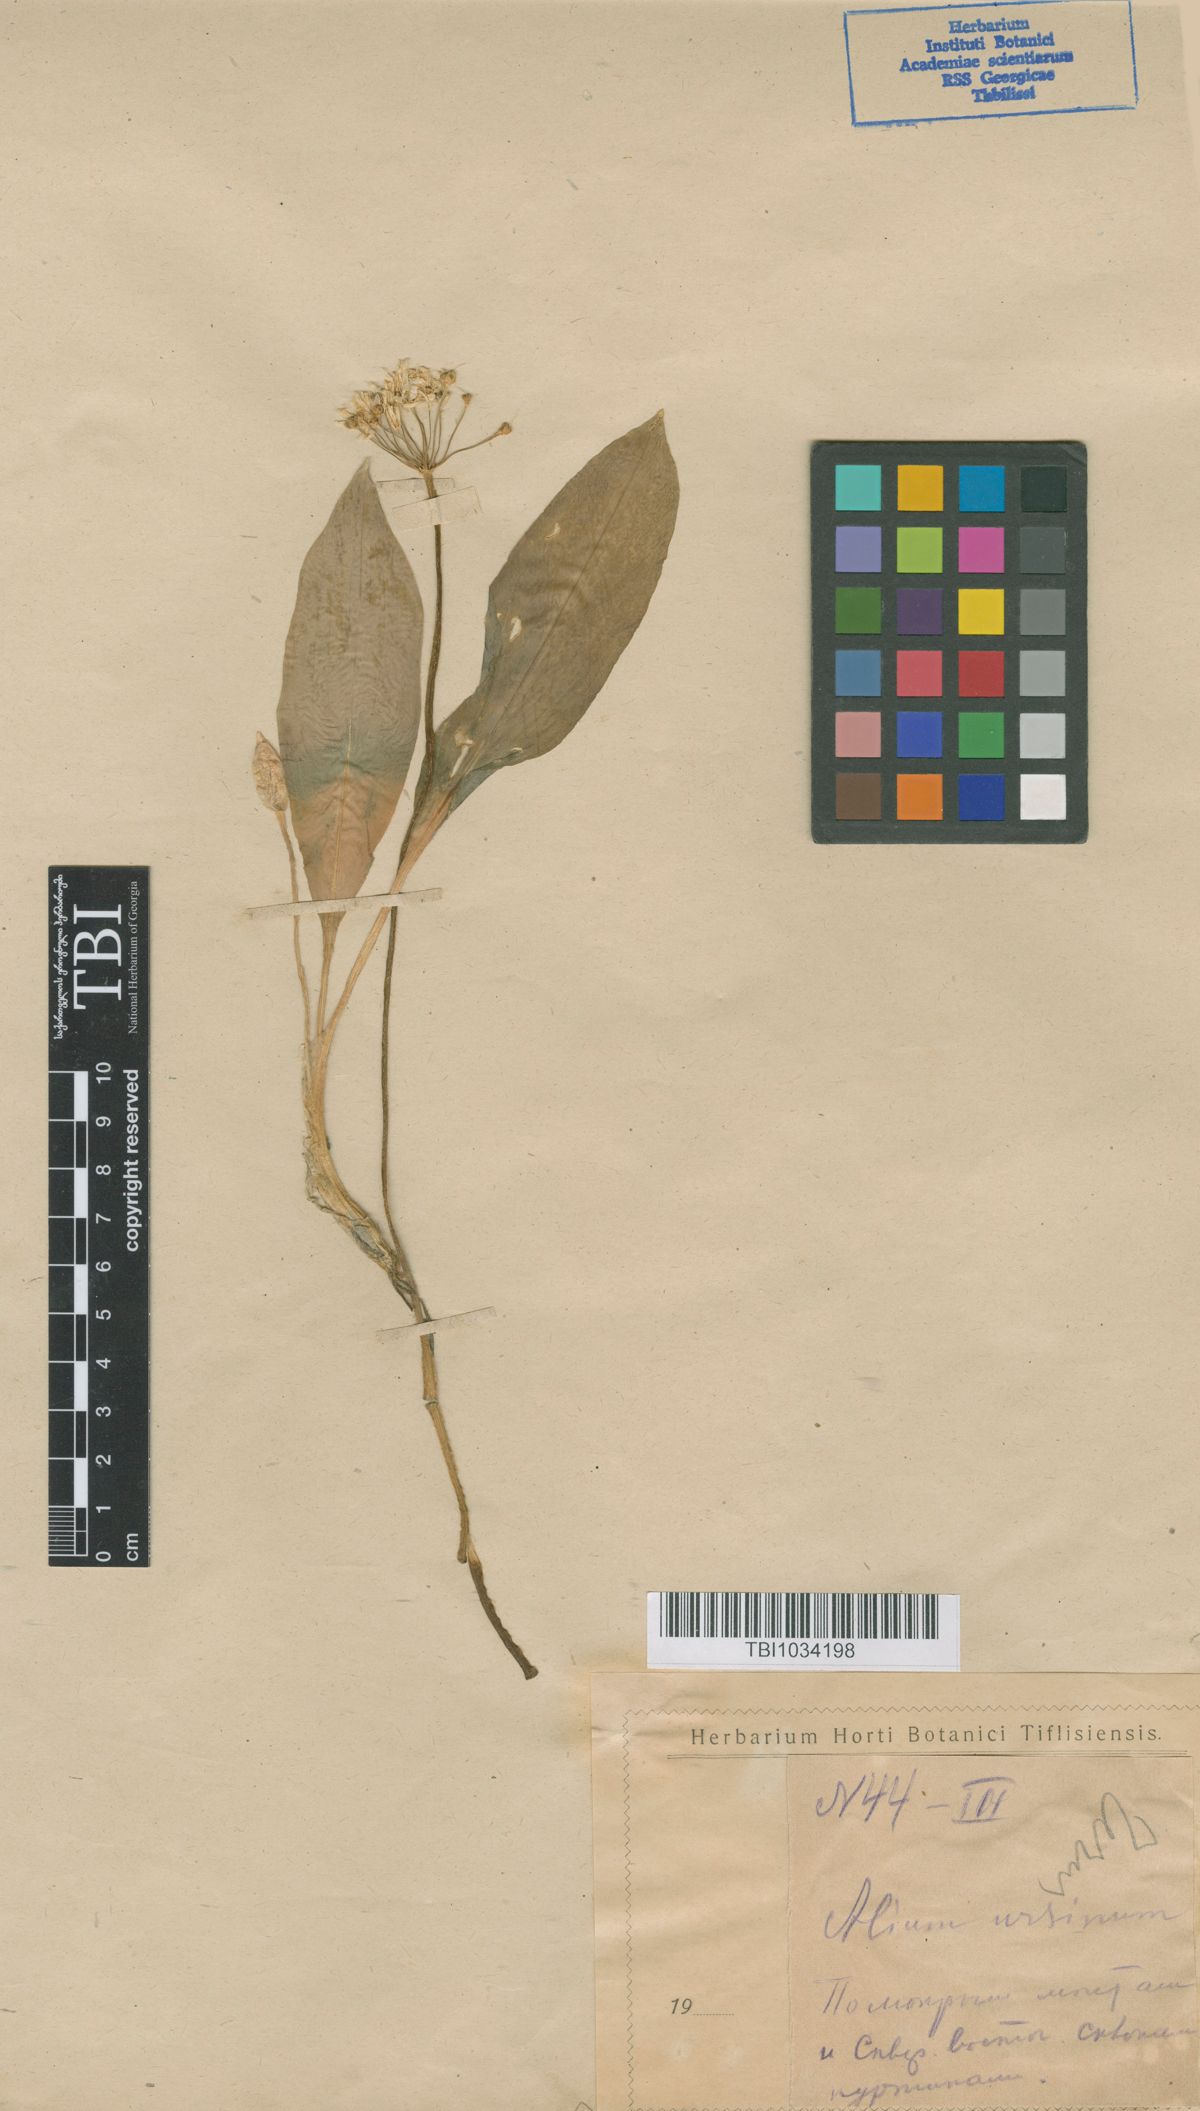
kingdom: Plantae
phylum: Tracheophyta
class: Liliopsida
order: Asparagales
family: Amaryllidaceae
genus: Allium
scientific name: Allium ursinum
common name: Ramsons
